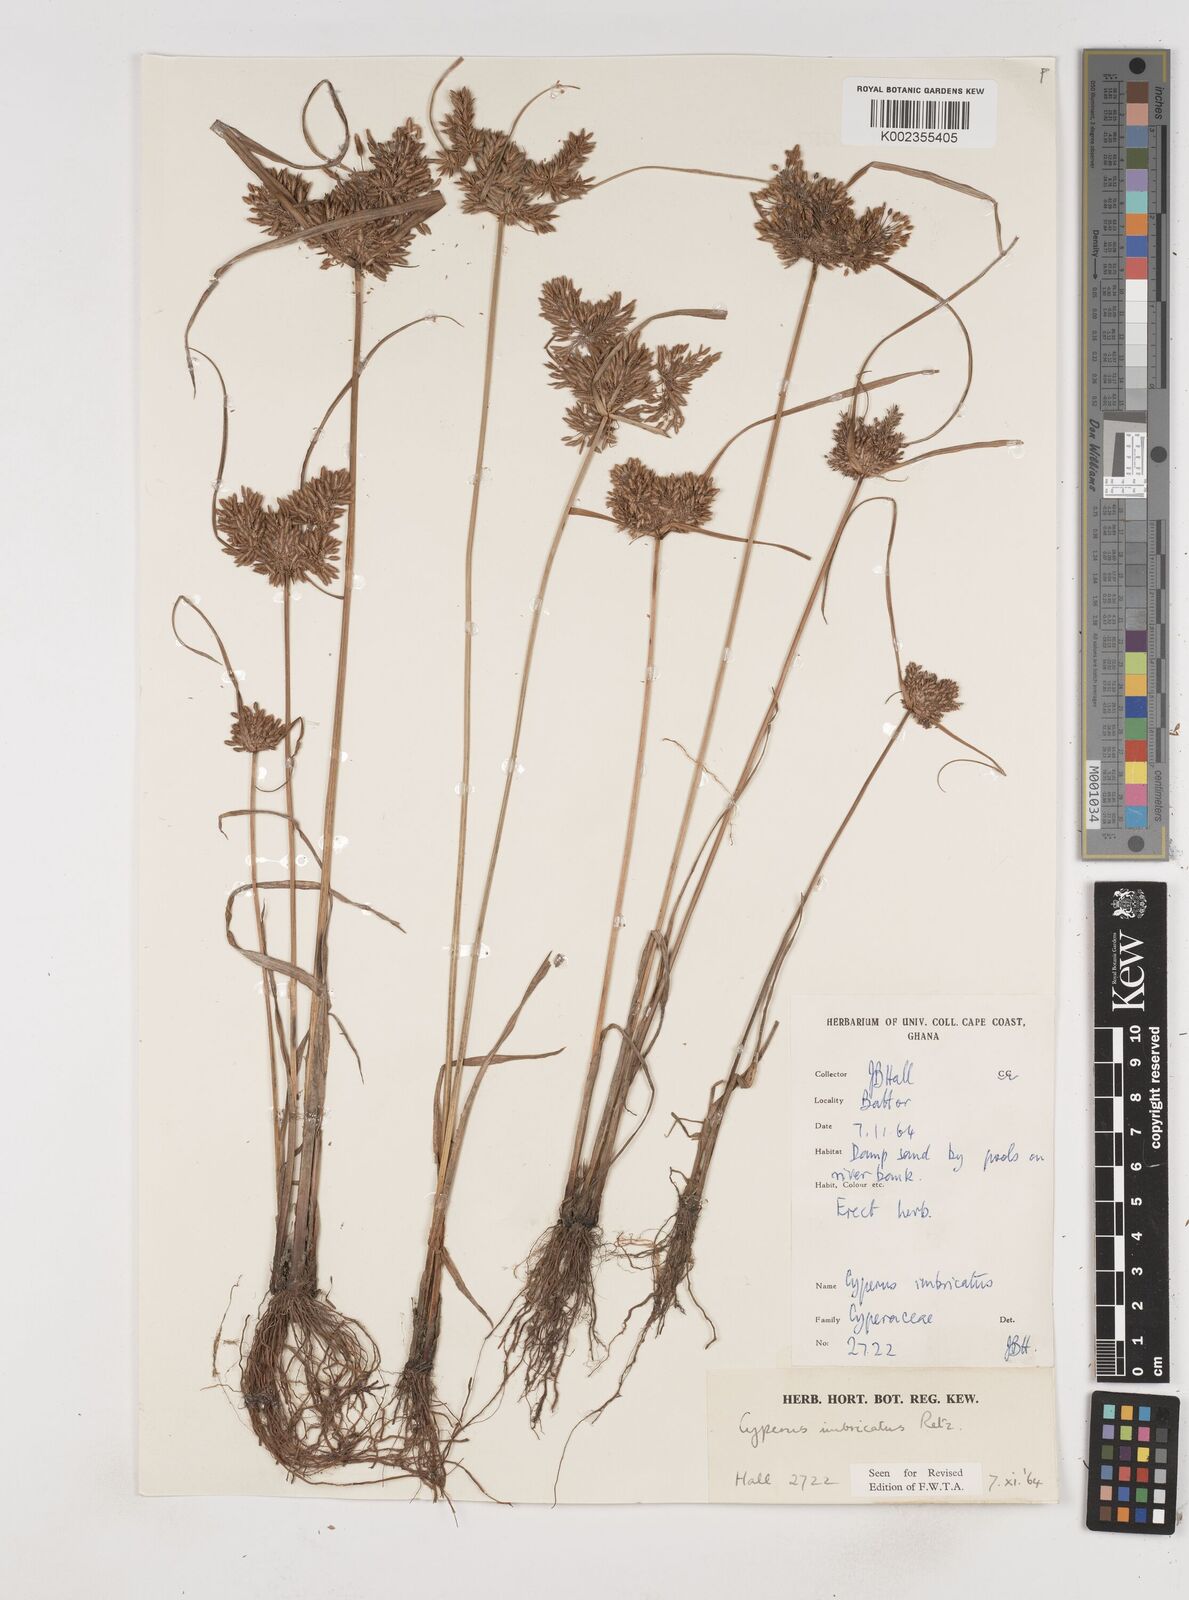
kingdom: Plantae
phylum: Tracheophyta
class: Liliopsida
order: Poales
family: Cyperaceae
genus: Cyperus
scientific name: Cyperus imbricatus
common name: Shingle flatsedge
